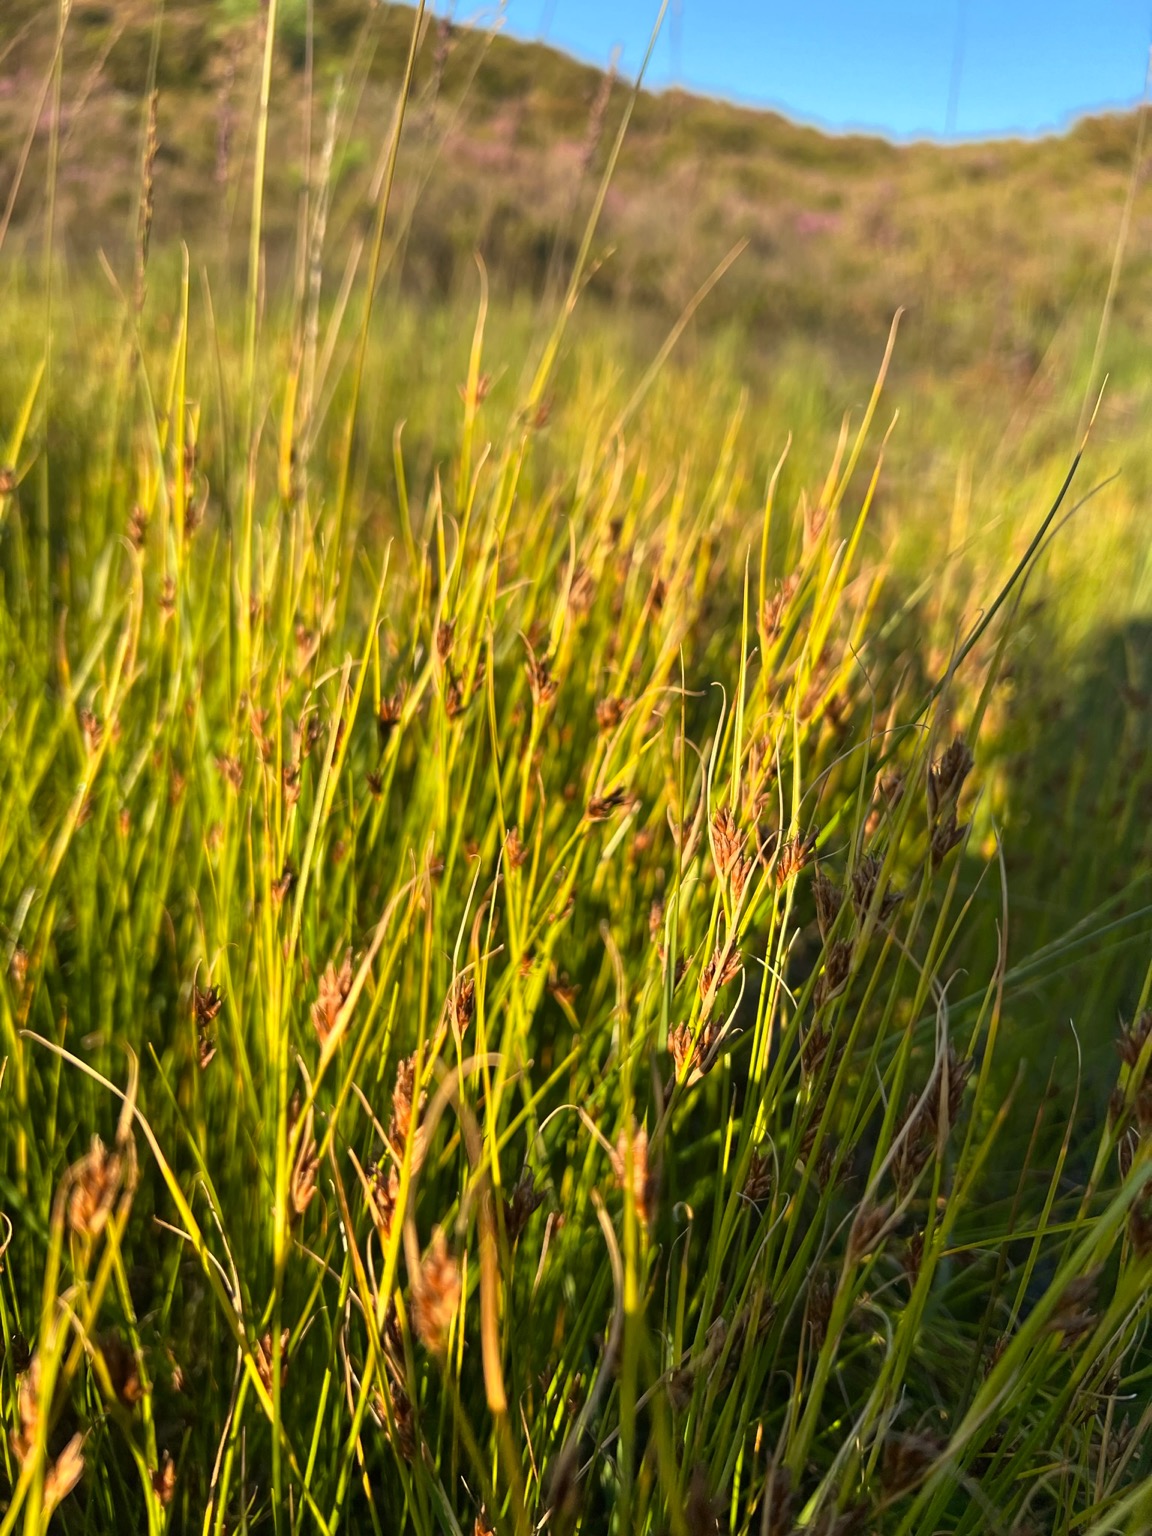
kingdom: Plantae
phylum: Tracheophyta
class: Liliopsida
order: Poales
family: Cyperaceae
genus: Rhynchospora
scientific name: Rhynchospora fusca
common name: Brun næbfrø
